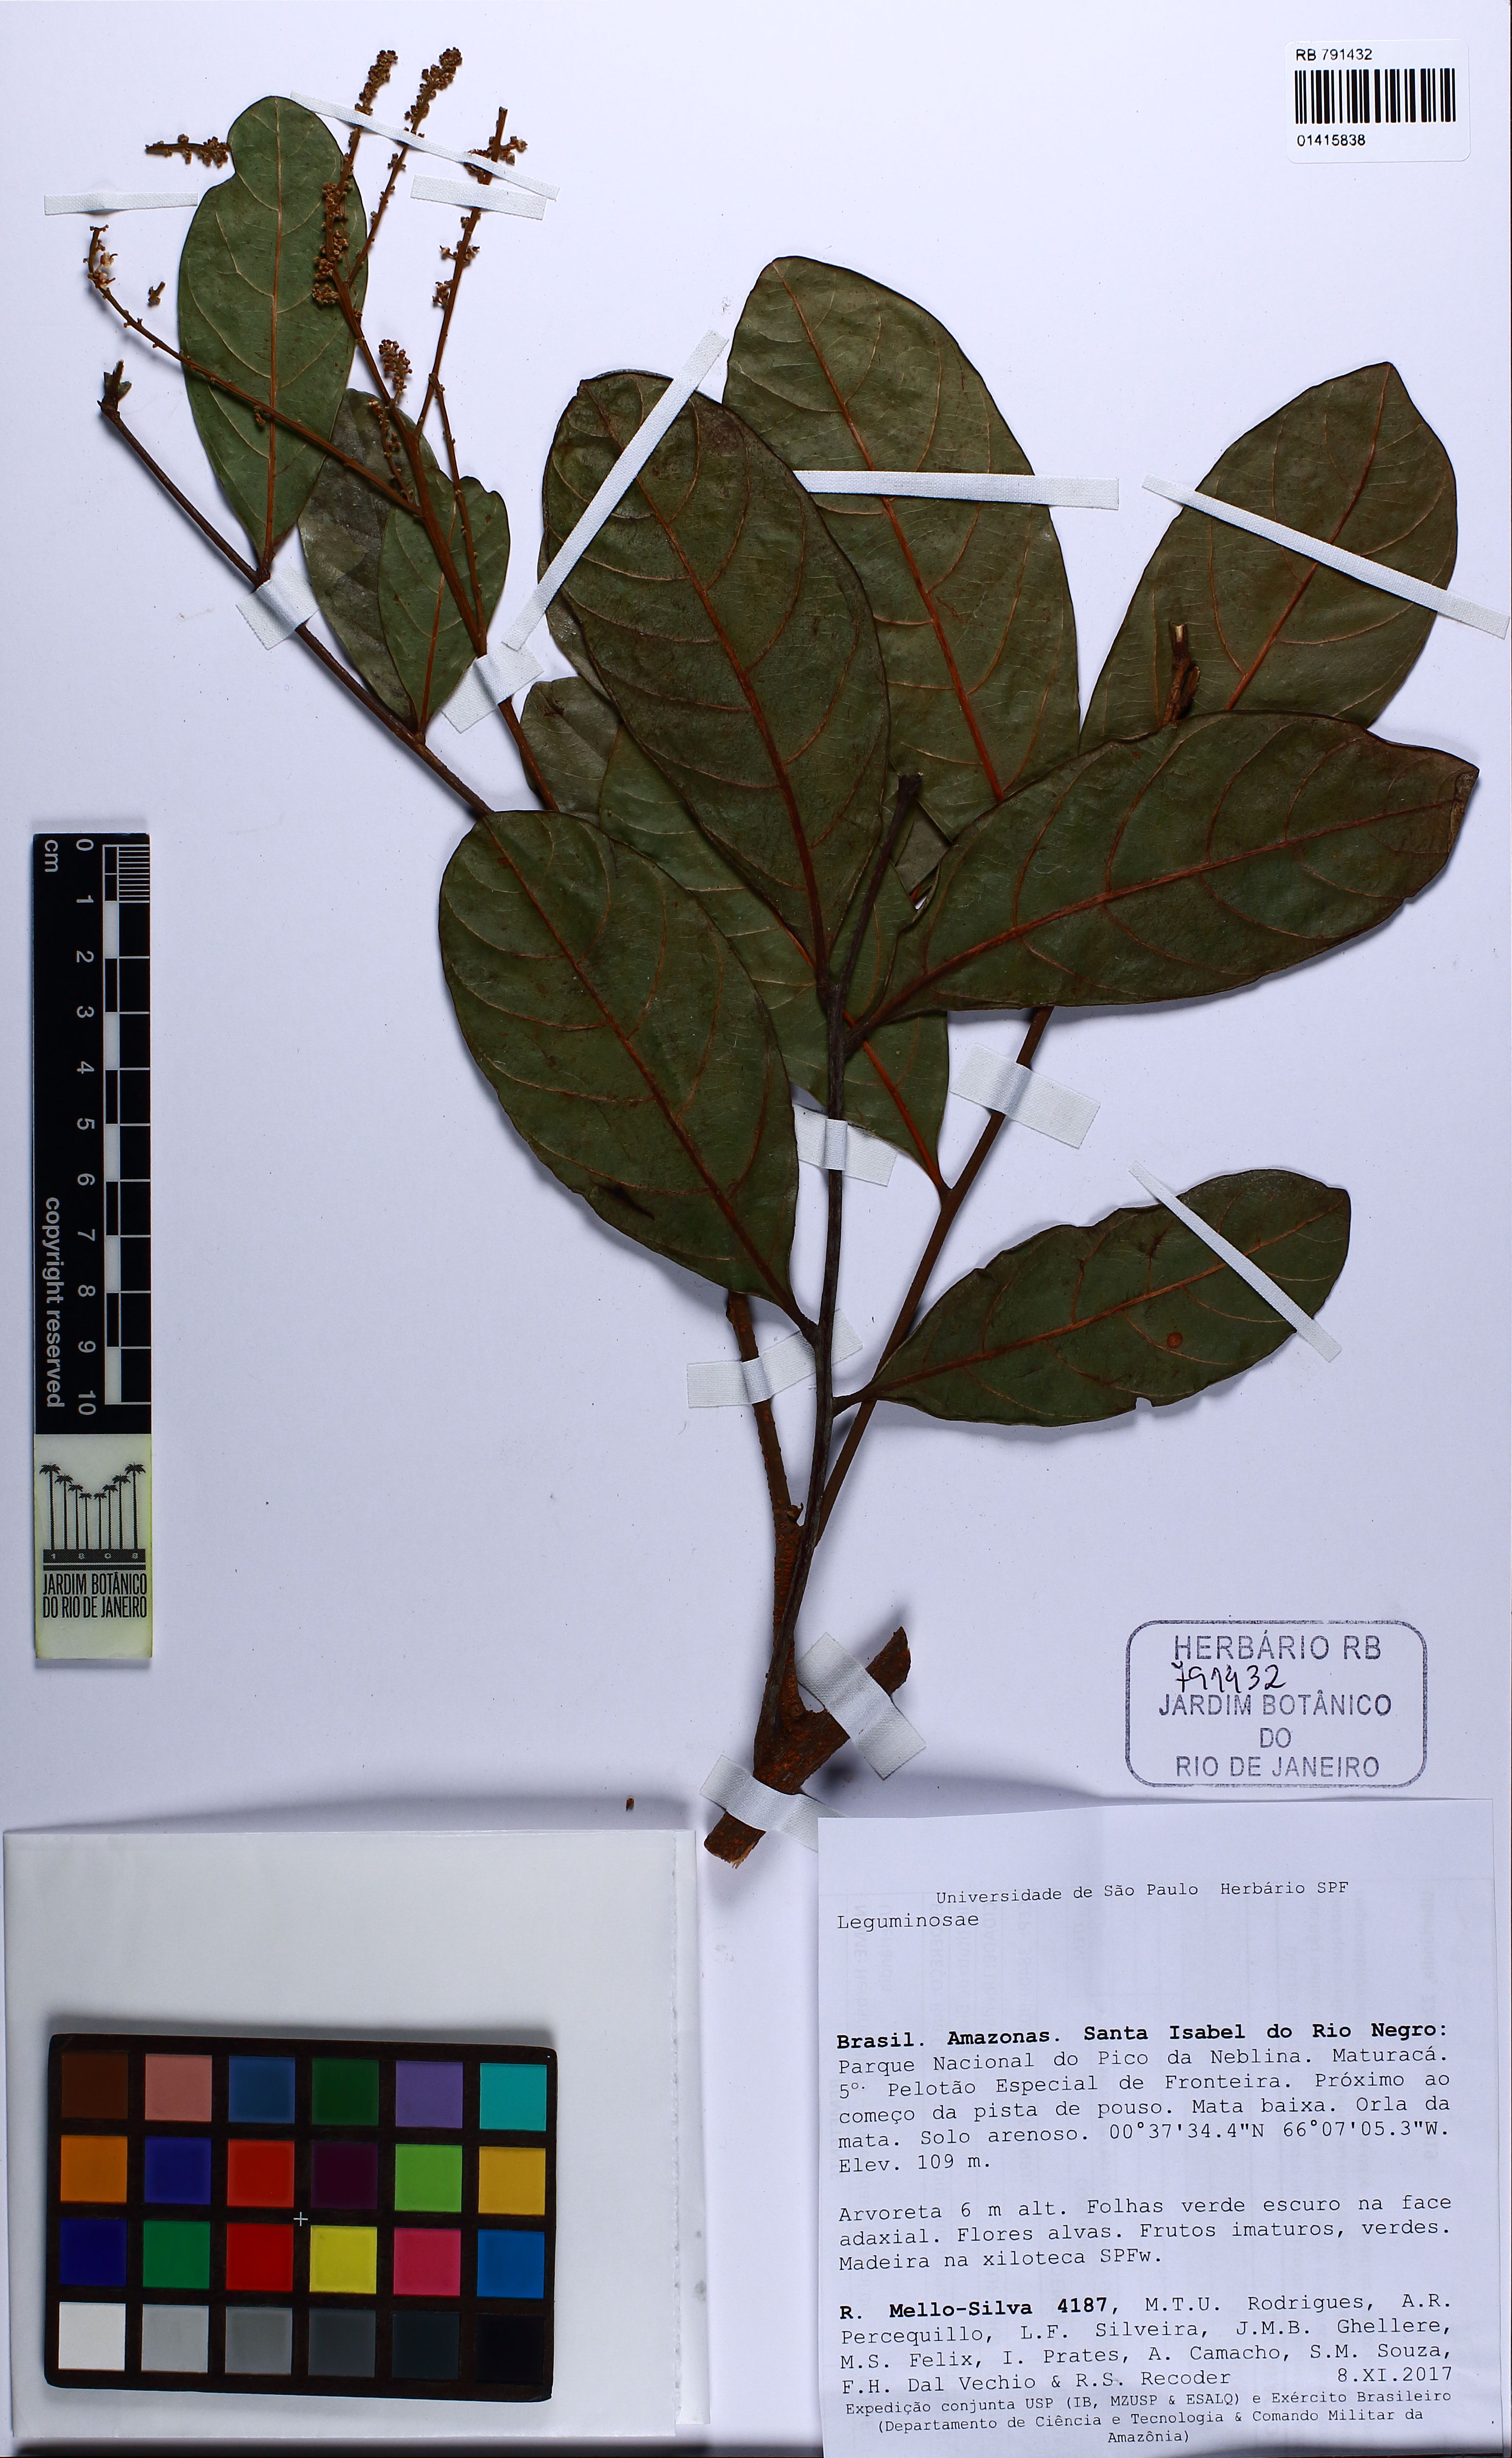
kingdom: Plantae
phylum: Tracheophyta
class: Magnoliopsida
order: Sapindales
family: Sapindaceae
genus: Cupania
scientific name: Cupania
